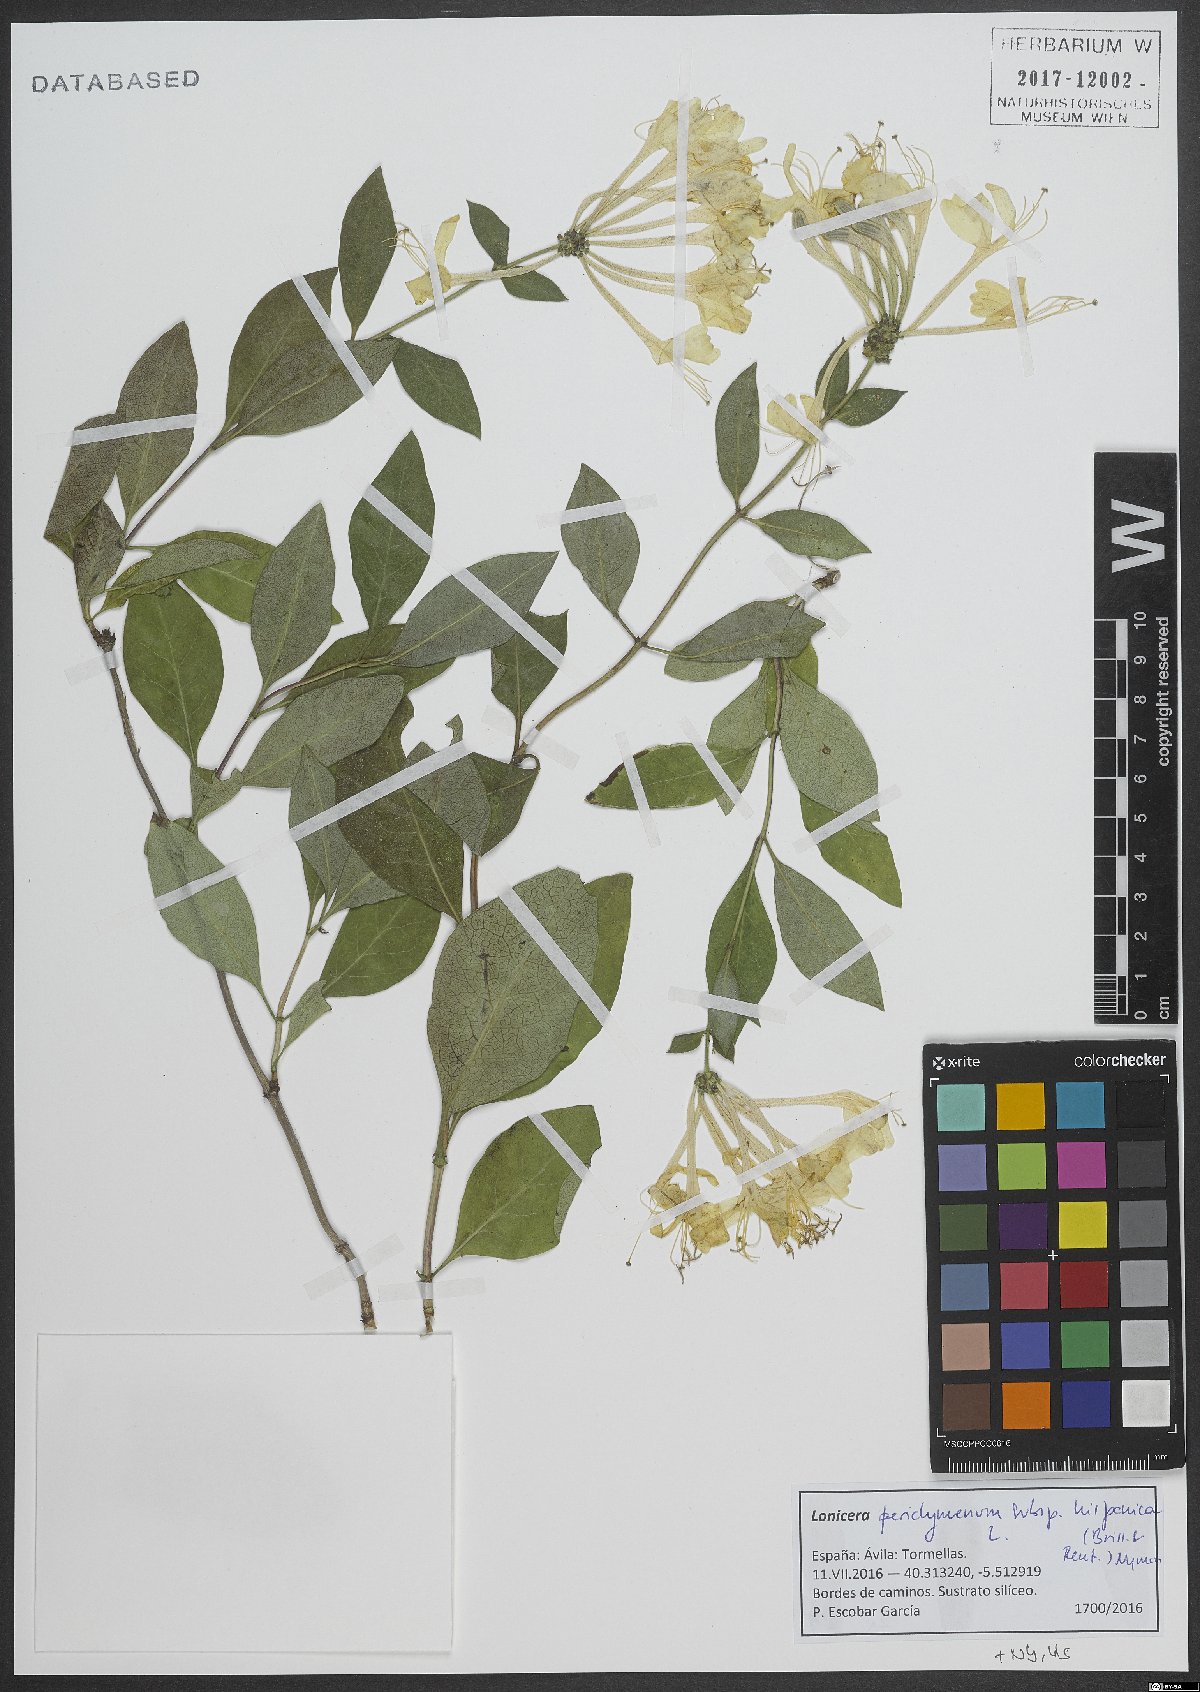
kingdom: Plantae
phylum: Tracheophyta
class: Magnoliopsida
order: Dipsacales
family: Caprifoliaceae
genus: Lonicera
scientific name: Lonicera periclymenum
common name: European honeysuckle
